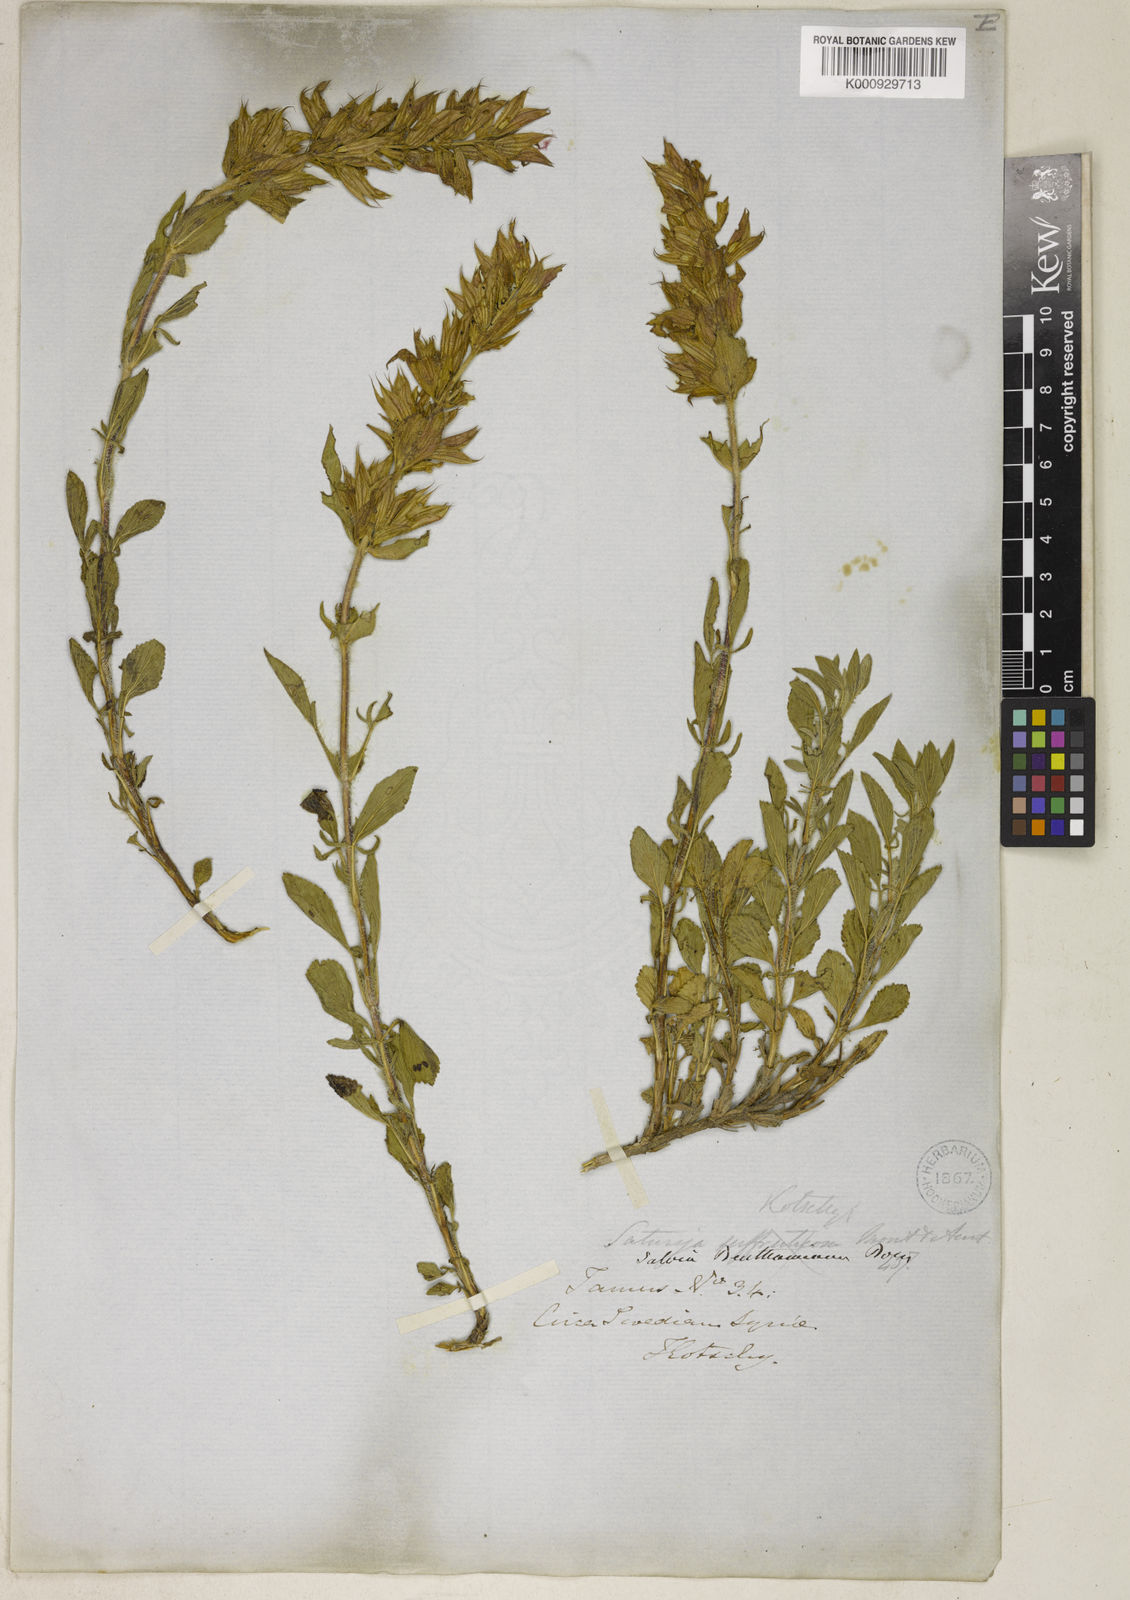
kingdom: Plantae
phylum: Tracheophyta
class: Magnoliopsida
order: Lamiales
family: Lamiaceae
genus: Salvia
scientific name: Salvia heldreichiana
